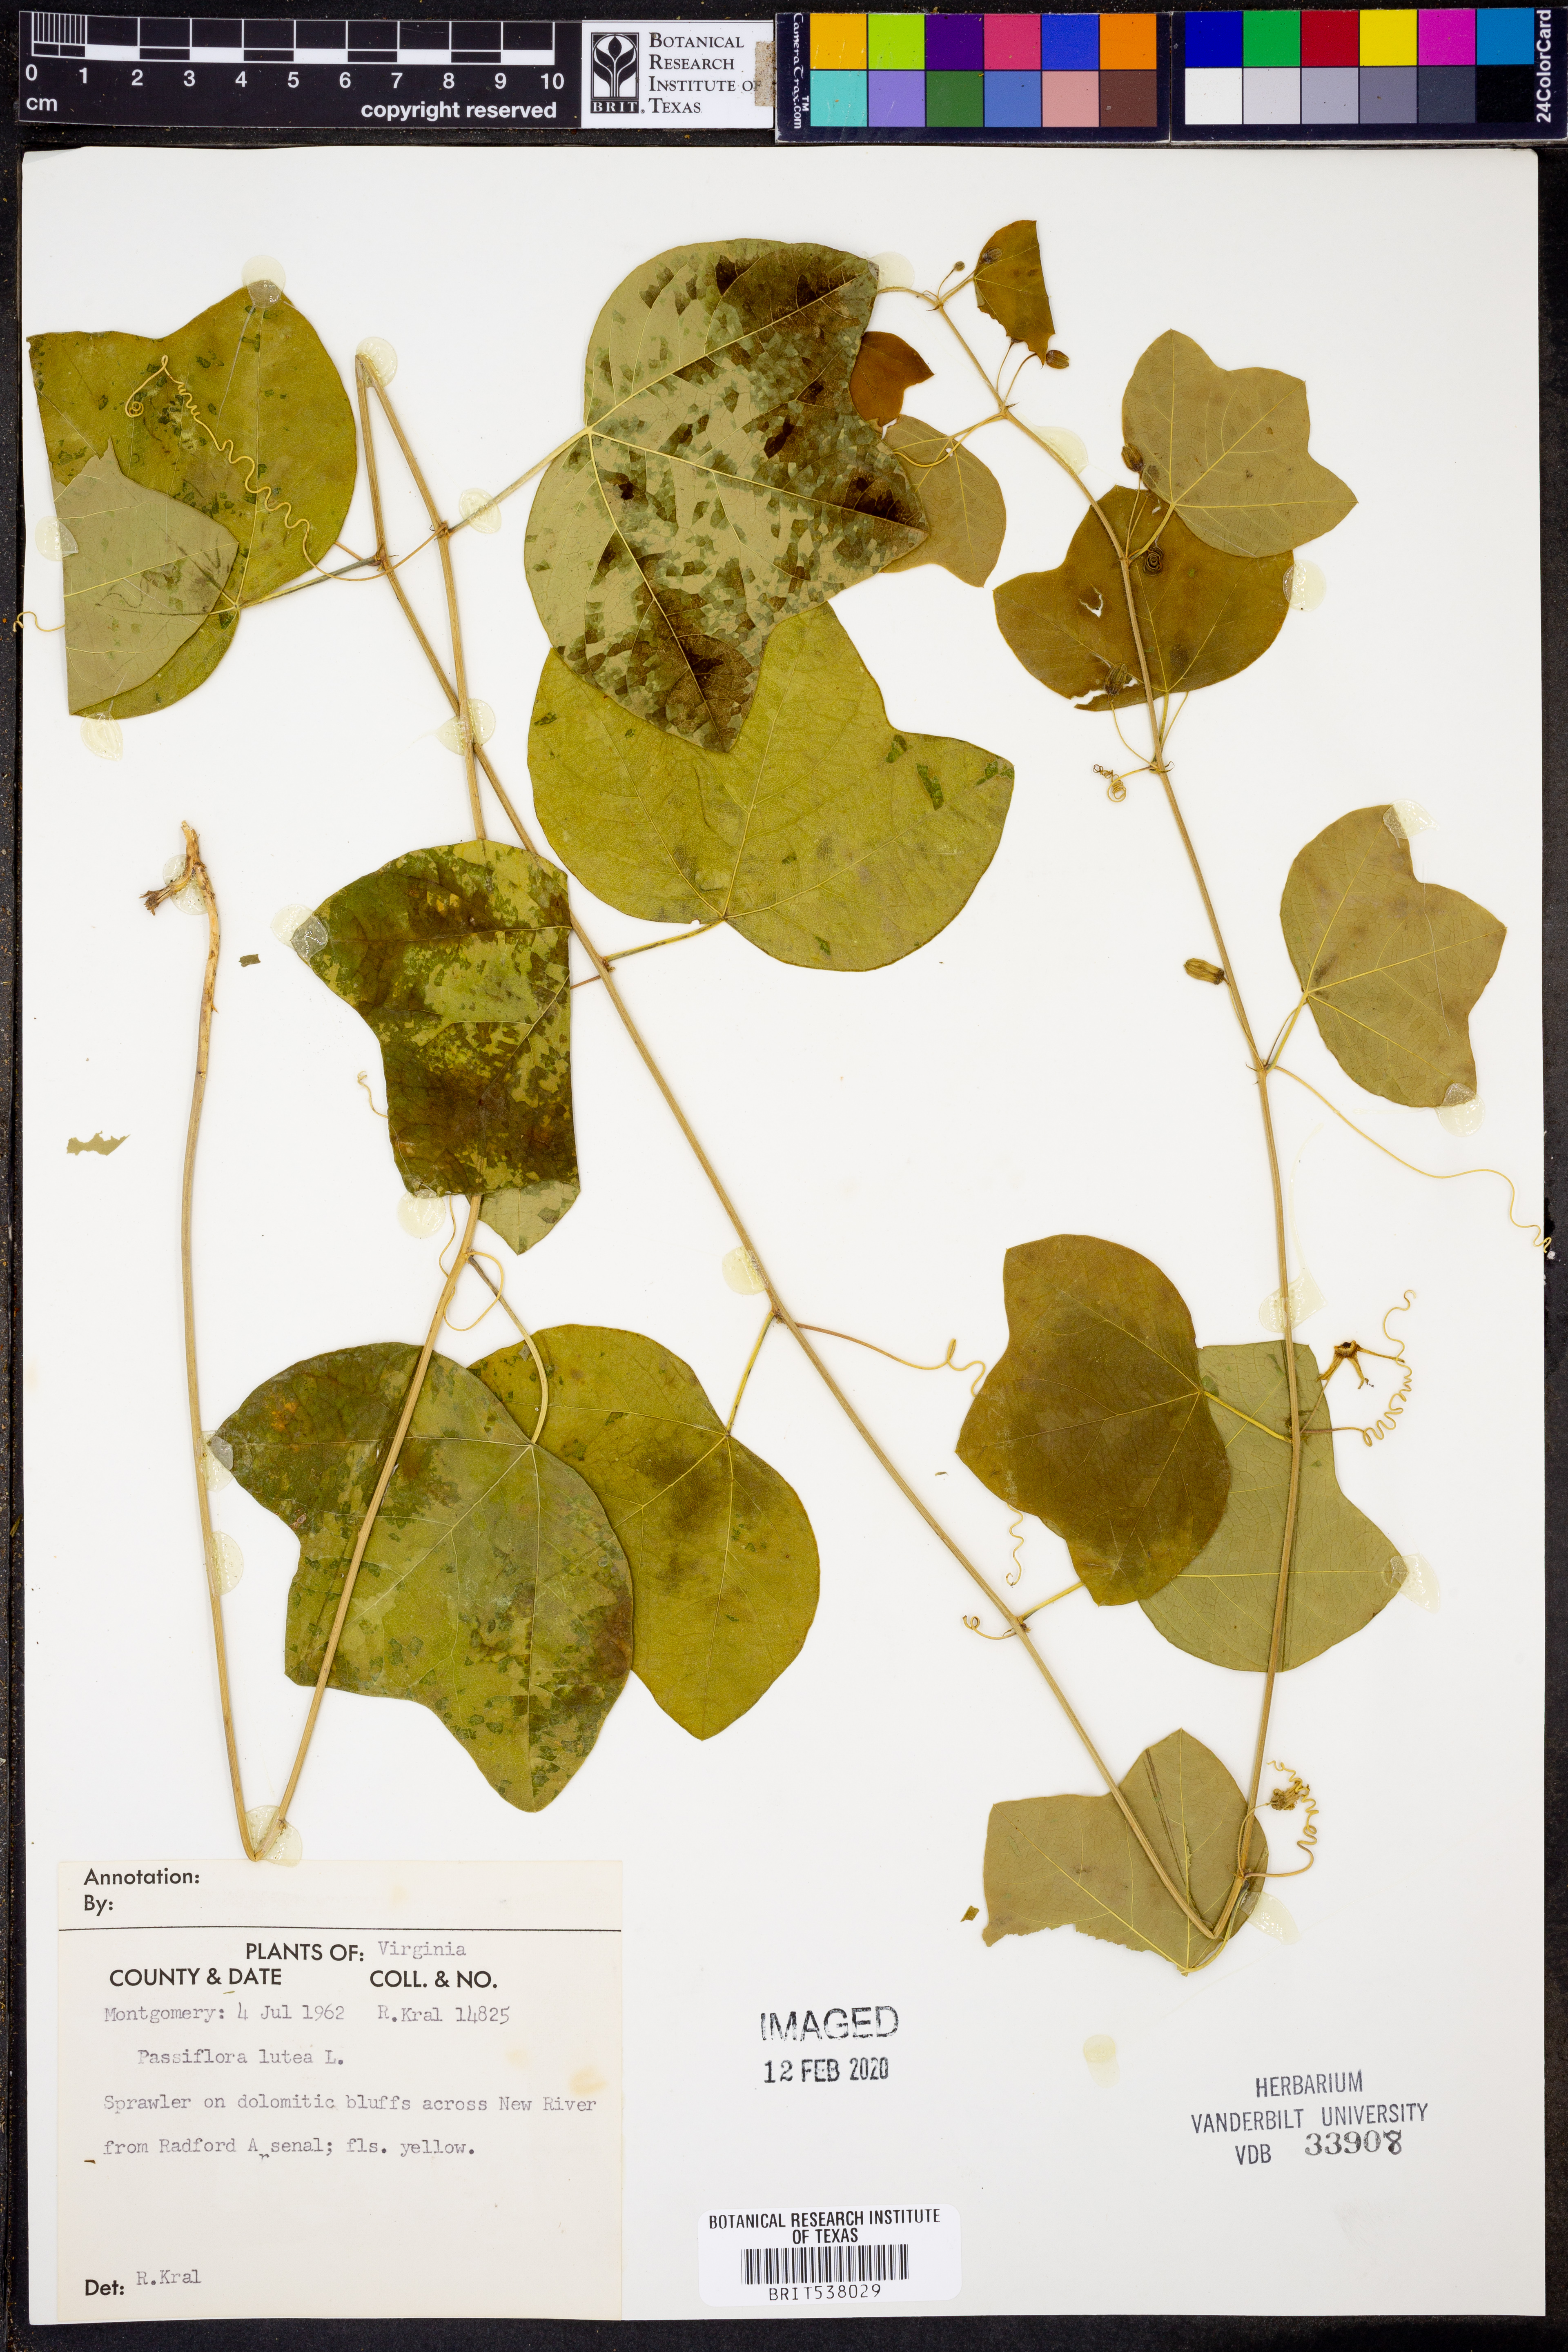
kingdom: Plantae
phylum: Tracheophyta
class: Magnoliopsida
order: Malpighiales
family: Passifloraceae
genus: Passiflora
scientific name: Passiflora lutea
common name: Yellow passionflower
